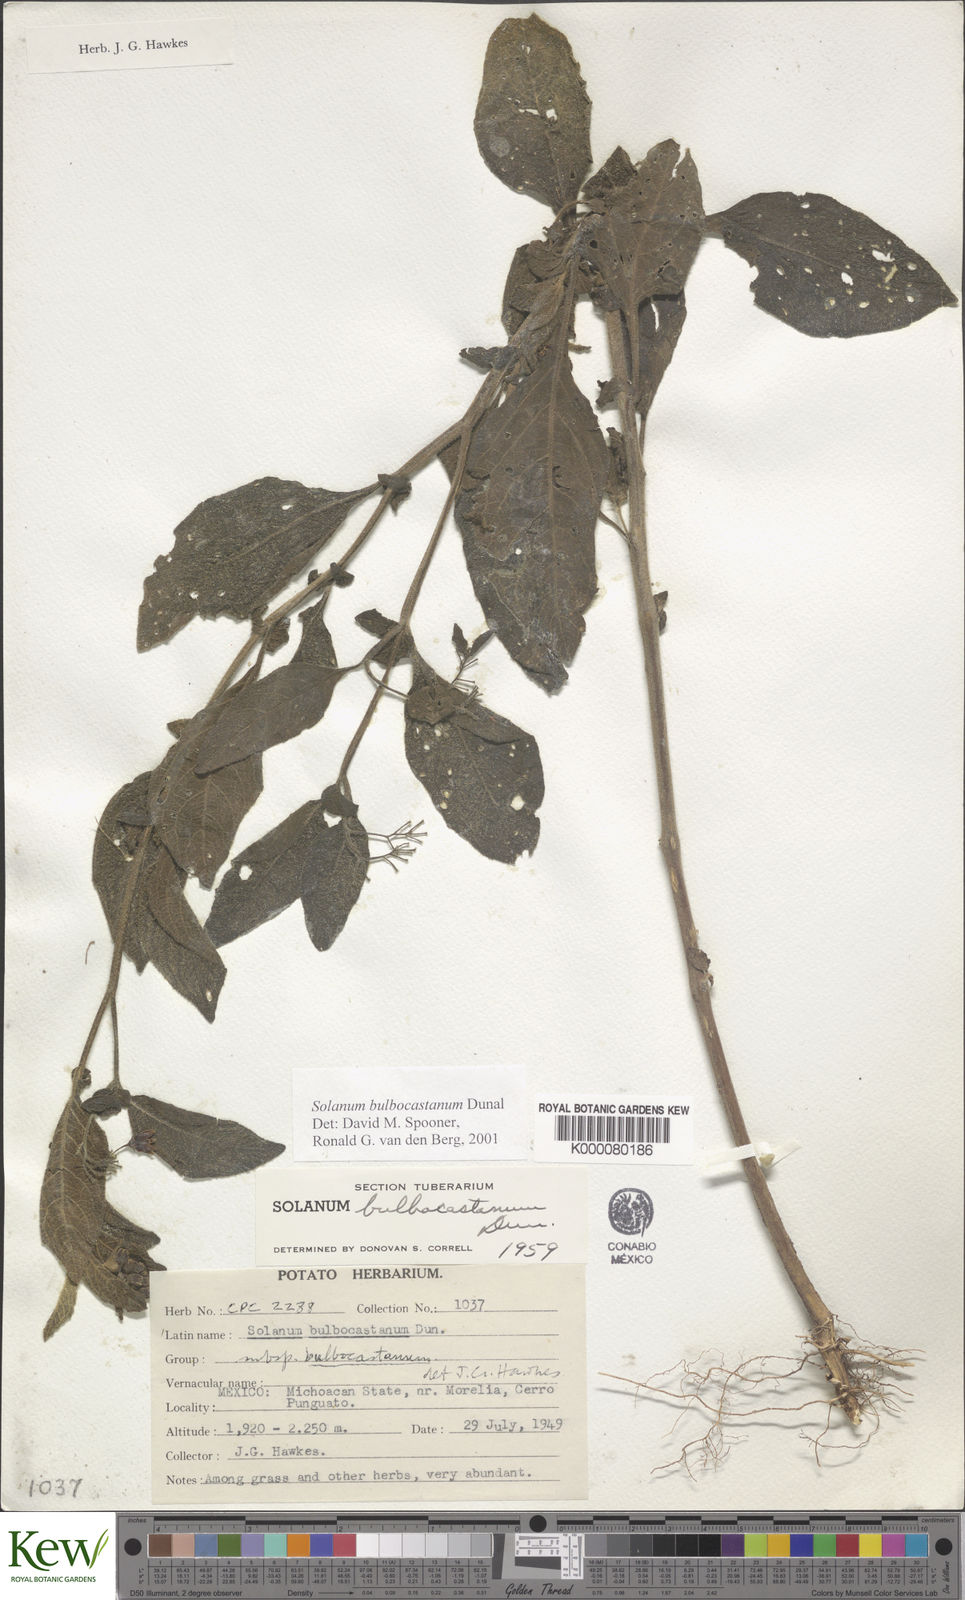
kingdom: Plantae
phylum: Tracheophyta
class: Magnoliopsida
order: Solanales
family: Solanaceae
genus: Solanum
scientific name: Solanum bulbocastanum
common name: Ornamental nightshade
